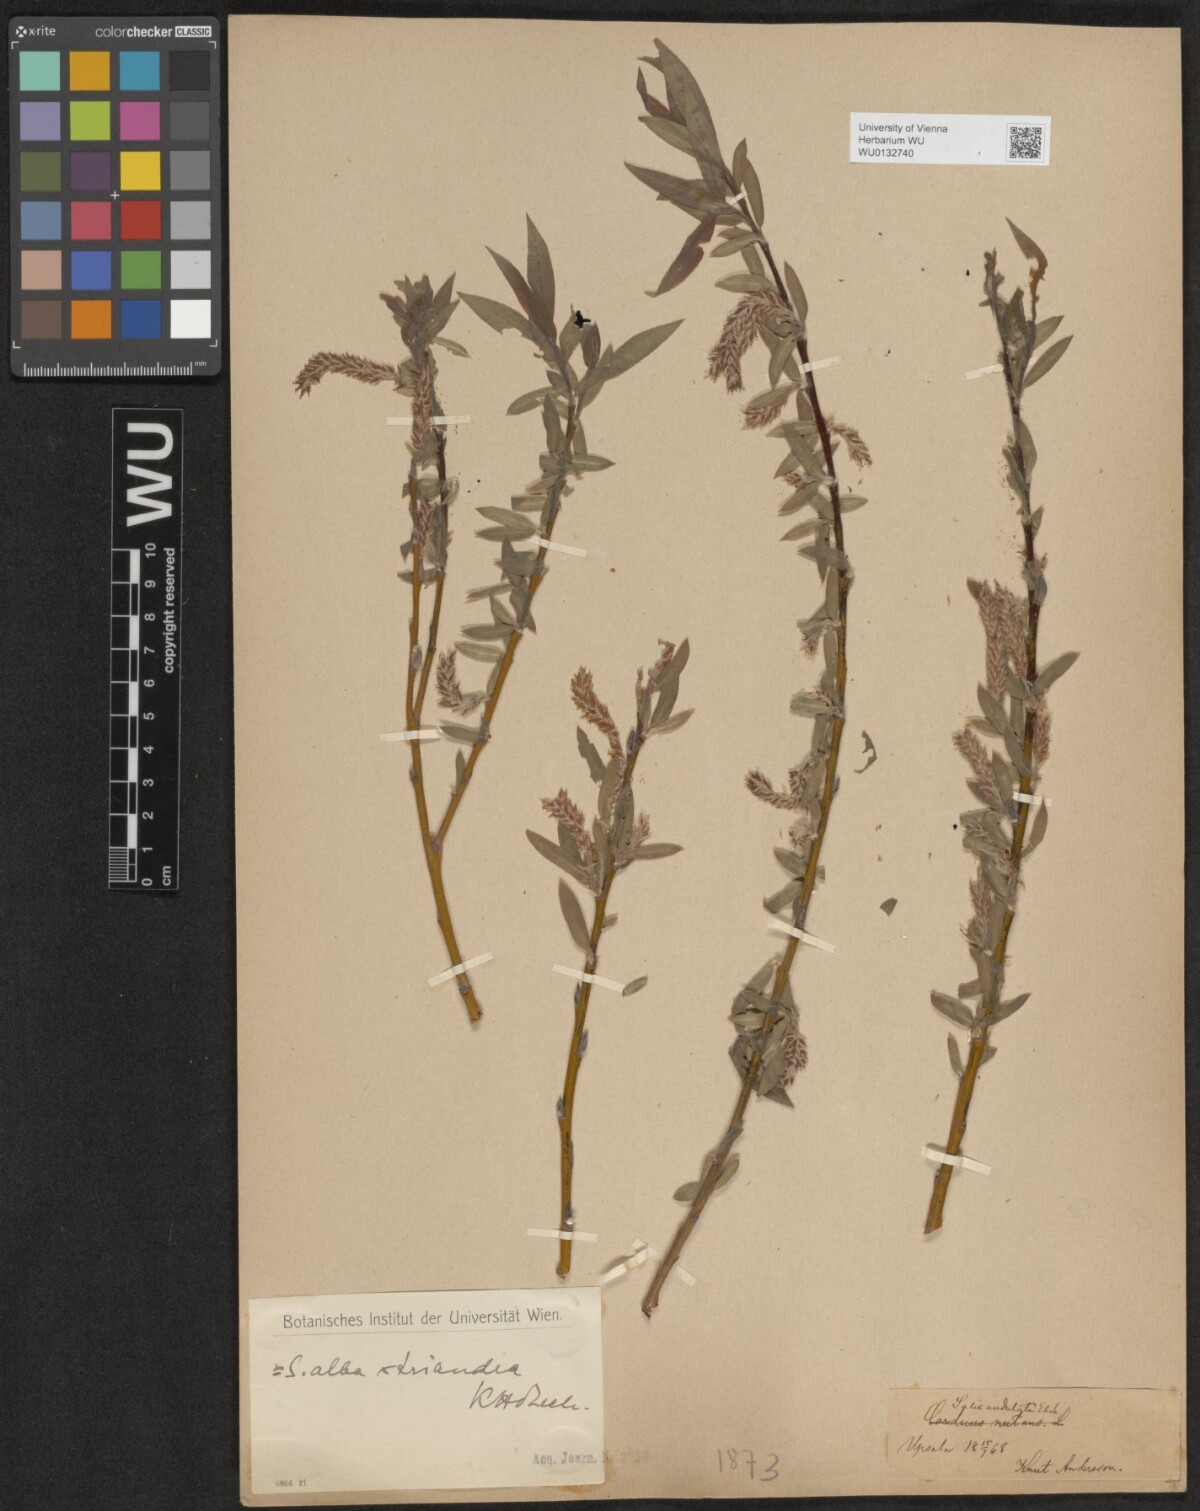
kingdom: Plantae
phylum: Tracheophyta
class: Magnoliopsida
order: Malpighiales
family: Salicaceae
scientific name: Salicaceae
